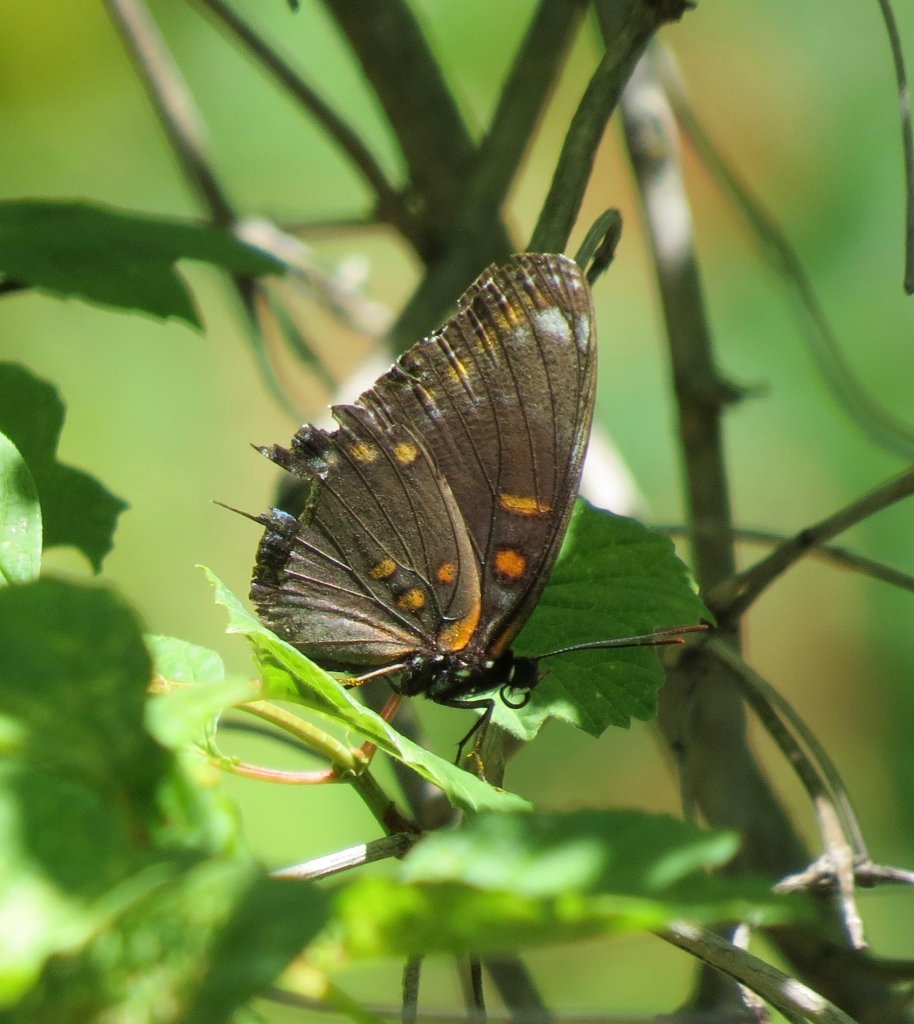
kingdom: Animalia
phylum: Arthropoda
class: Insecta
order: Lepidoptera
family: Nymphalidae
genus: Limenitis
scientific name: Limenitis astyanax
